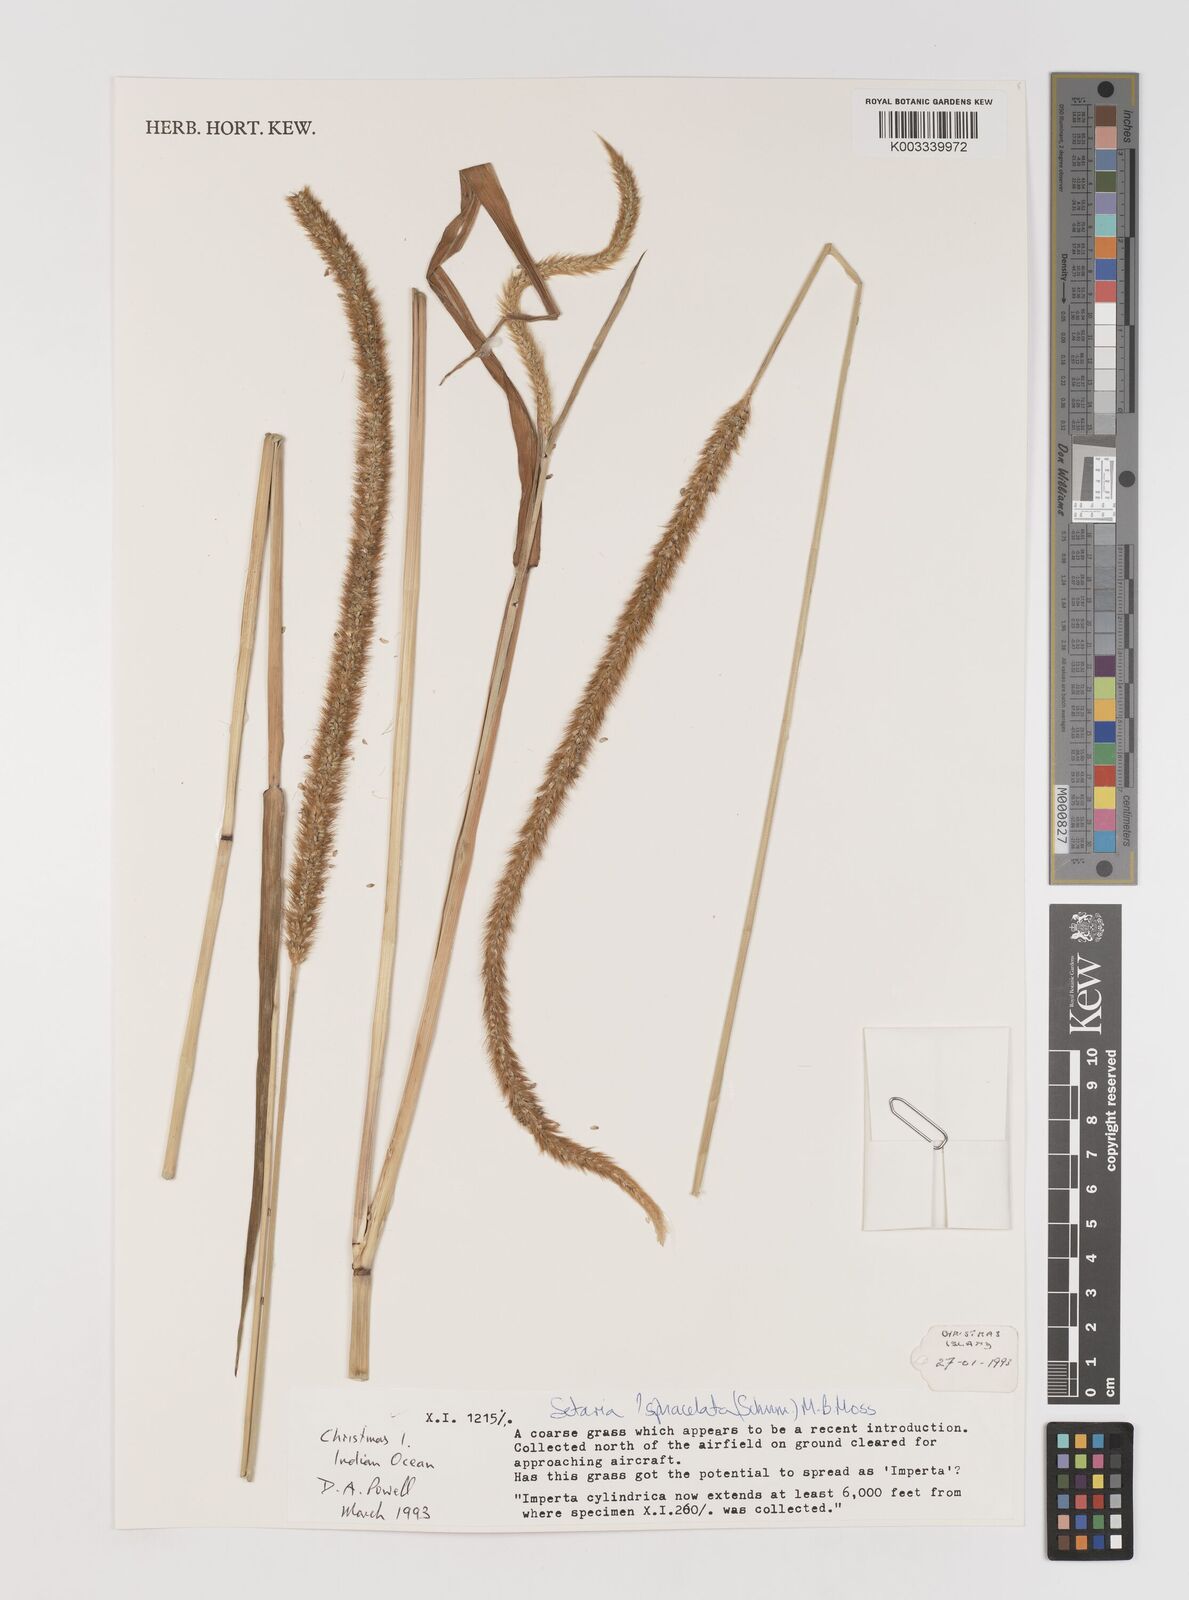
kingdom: Plantae
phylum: Tracheophyta
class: Liliopsida
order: Poales
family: Poaceae
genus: Setaria
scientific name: Setaria sphacelata
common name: African bristlegrass
